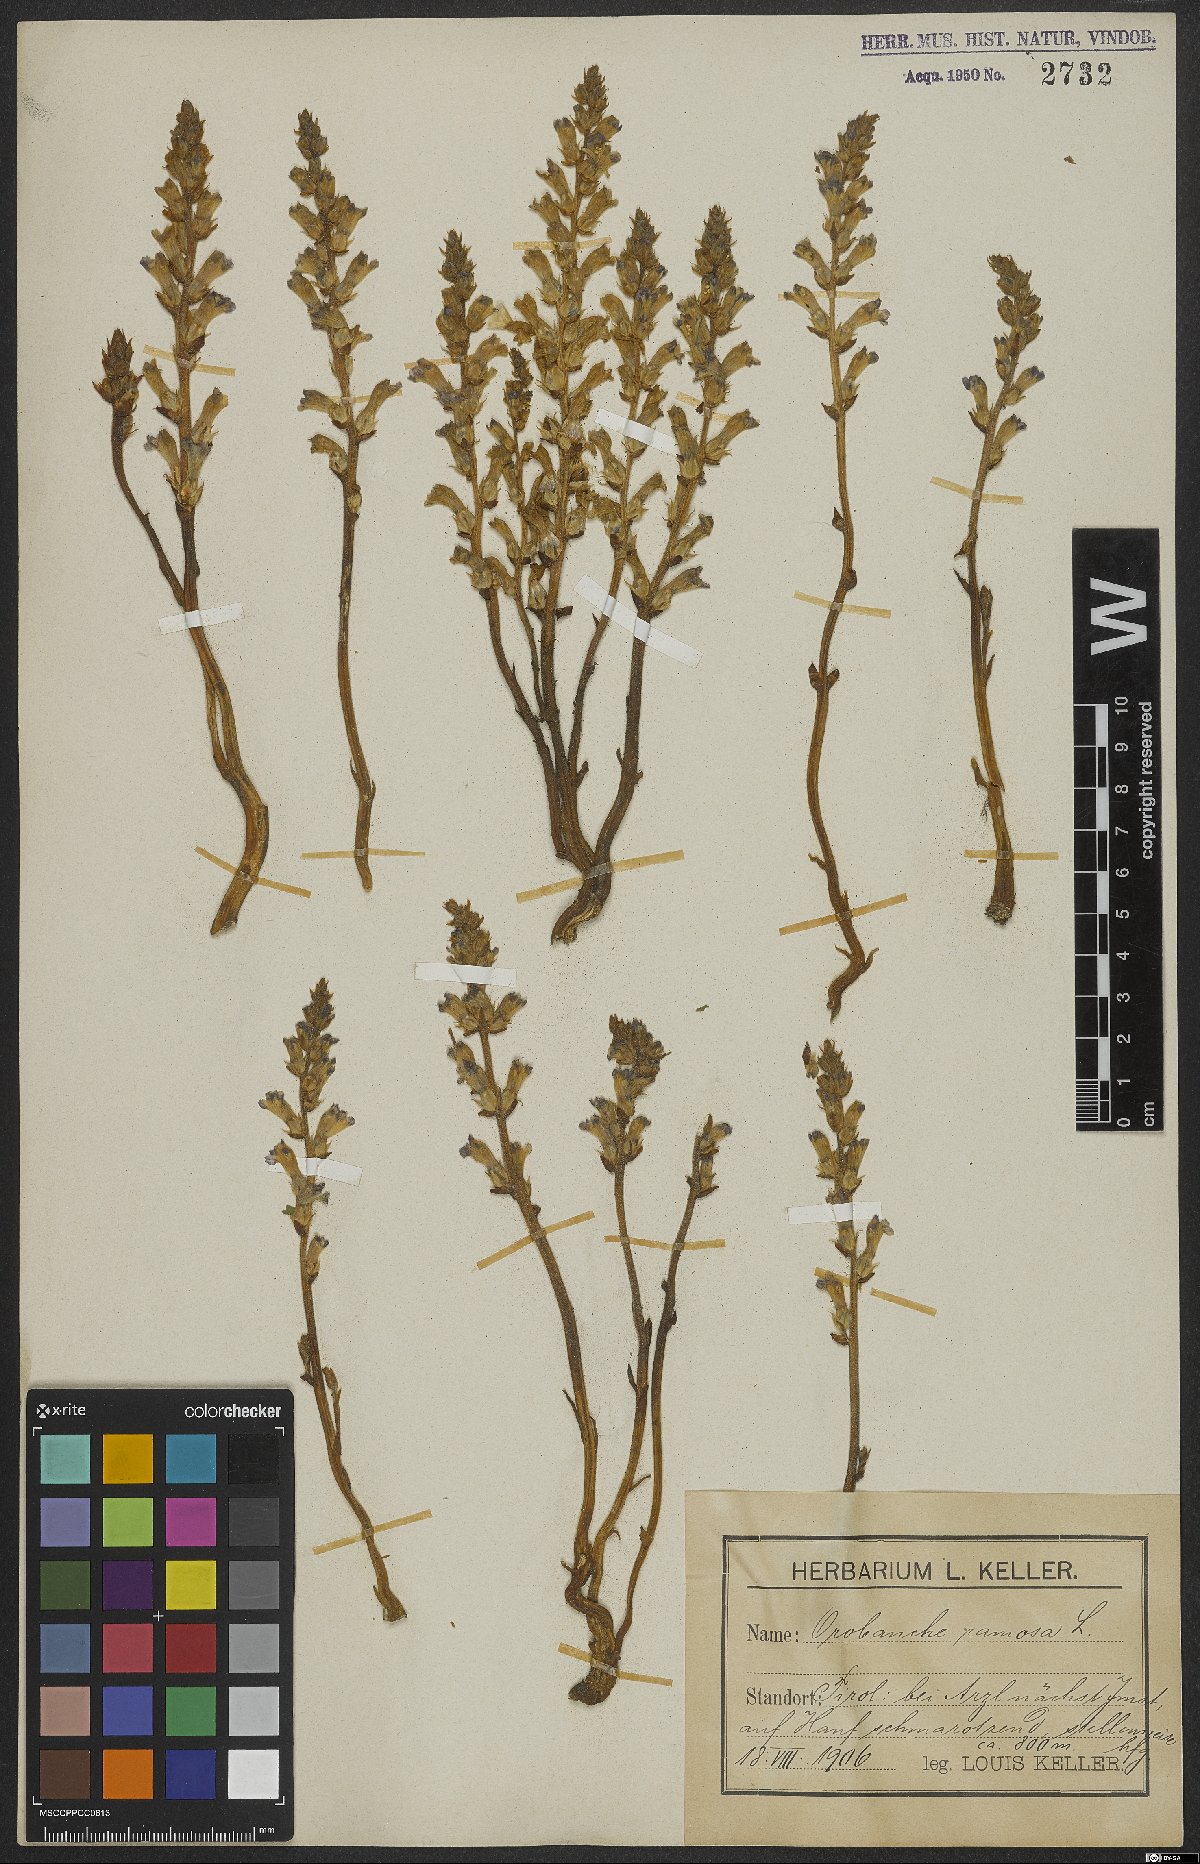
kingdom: Plantae
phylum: Tracheophyta
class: Magnoliopsida
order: Lamiales
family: Orobanchaceae
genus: Phelipanche
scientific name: Phelipanche ramosa
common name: Branched broomrape
